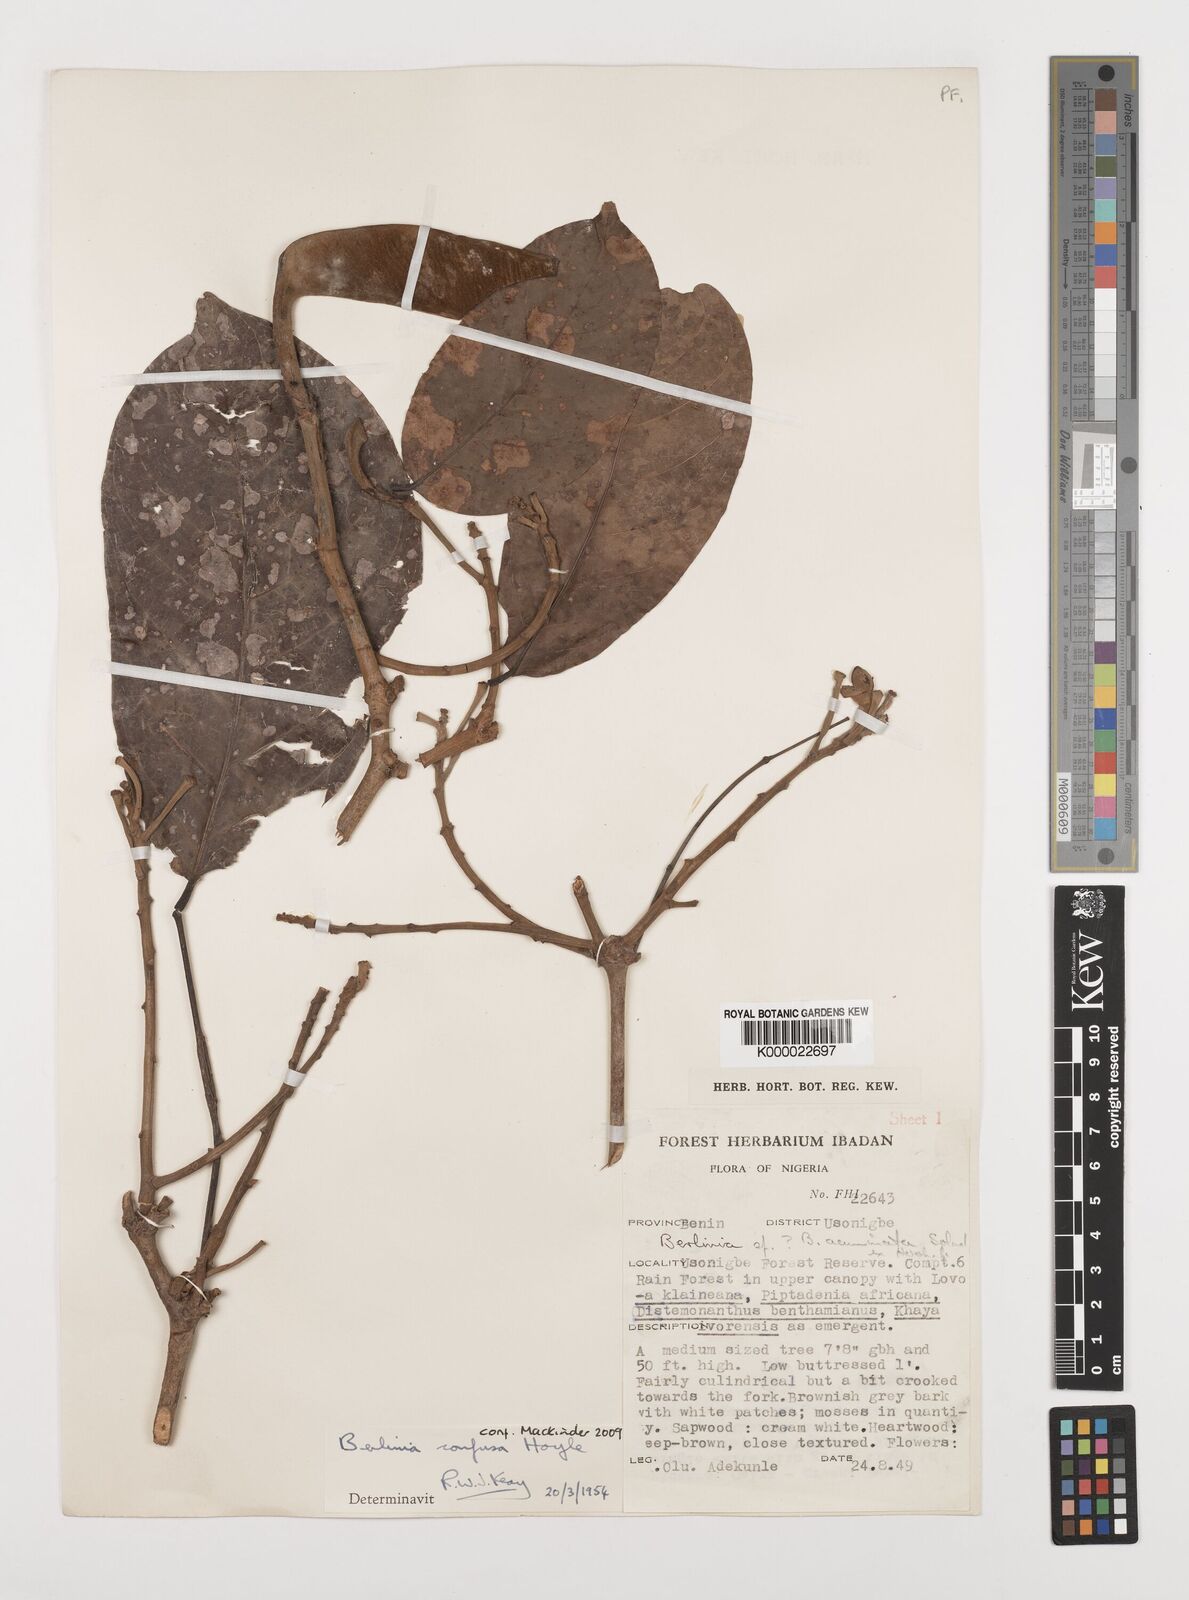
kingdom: Plantae
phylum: Tracheophyta
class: Magnoliopsida
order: Fabales
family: Fabaceae
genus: Berlinia
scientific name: Berlinia confusa
